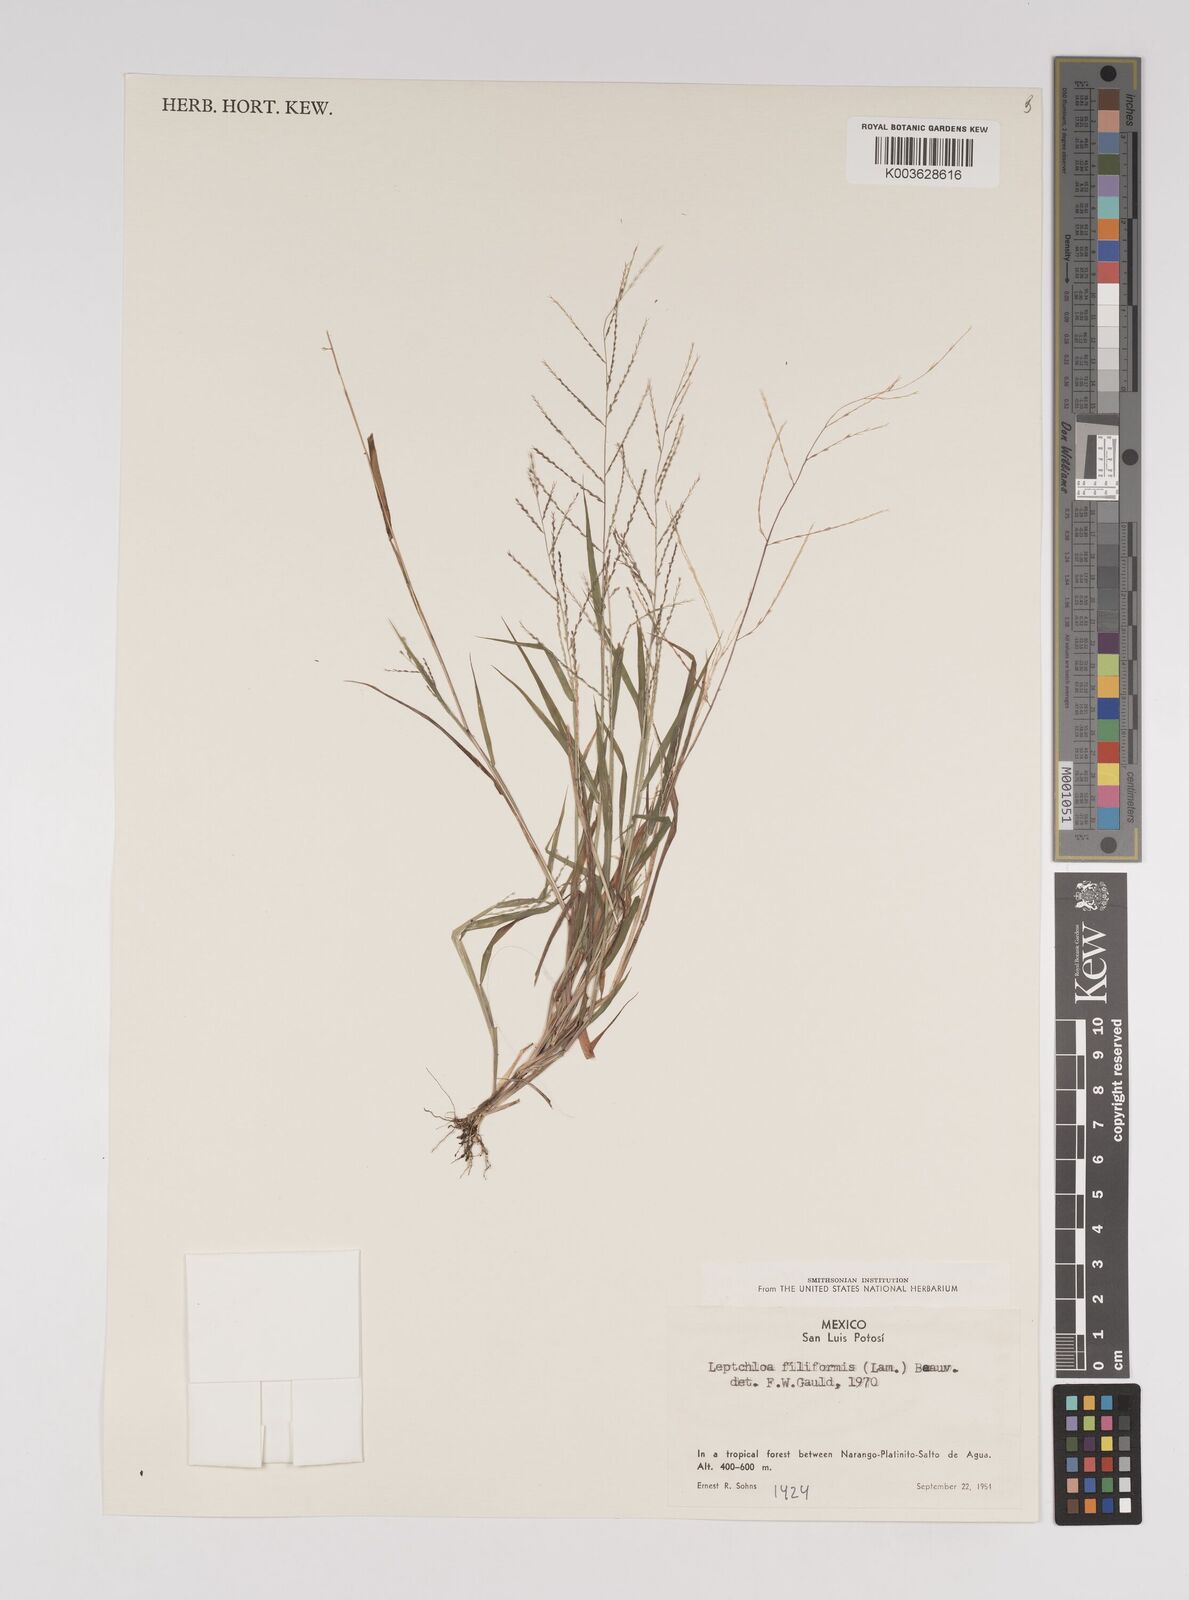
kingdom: Plantae
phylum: Tracheophyta
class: Liliopsida
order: Poales
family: Poaceae
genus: Leptochloa
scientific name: Leptochloa panicea
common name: Mucronate sprangletop
